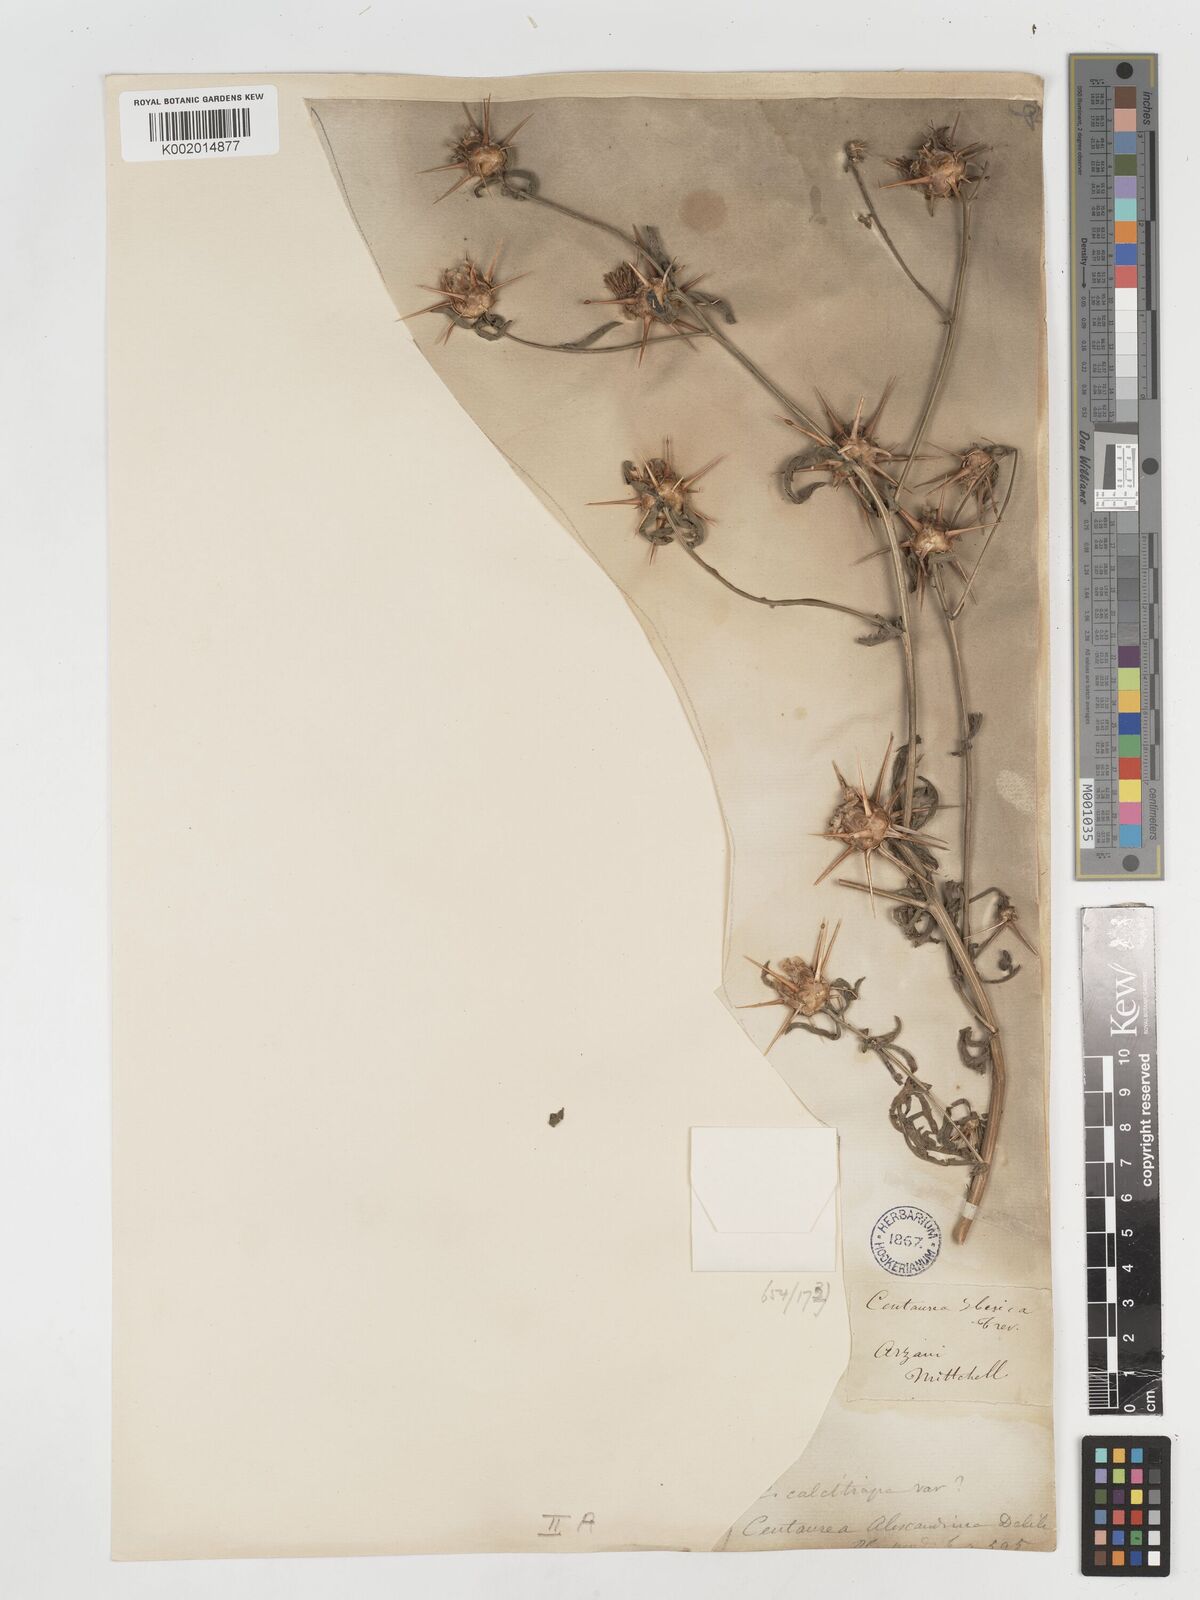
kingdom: Plantae
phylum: Tracheophyta
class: Magnoliopsida
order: Asterales
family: Asteraceae
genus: Centaurea
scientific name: Centaurea iberica
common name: Iberian knapweed
